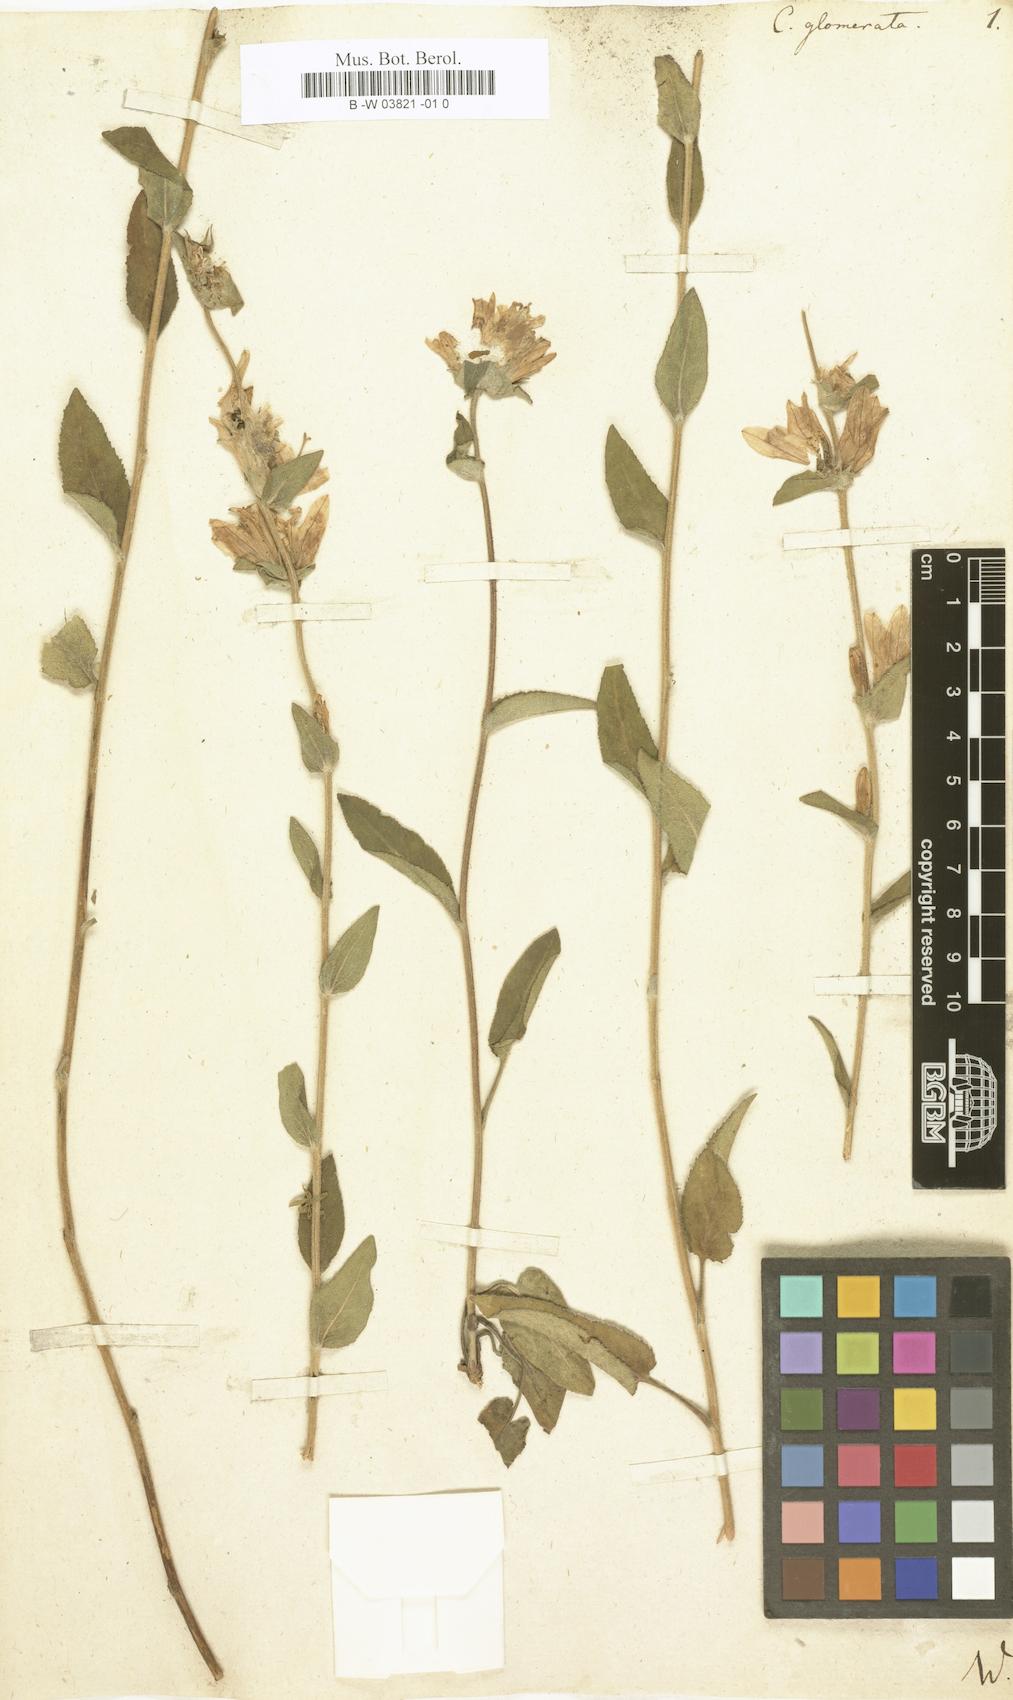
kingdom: Plantae
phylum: Tracheophyta
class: Magnoliopsida
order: Asterales
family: Campanulaceae
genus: Campanula
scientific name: Campanula glomerata
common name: Clustered bellflower
